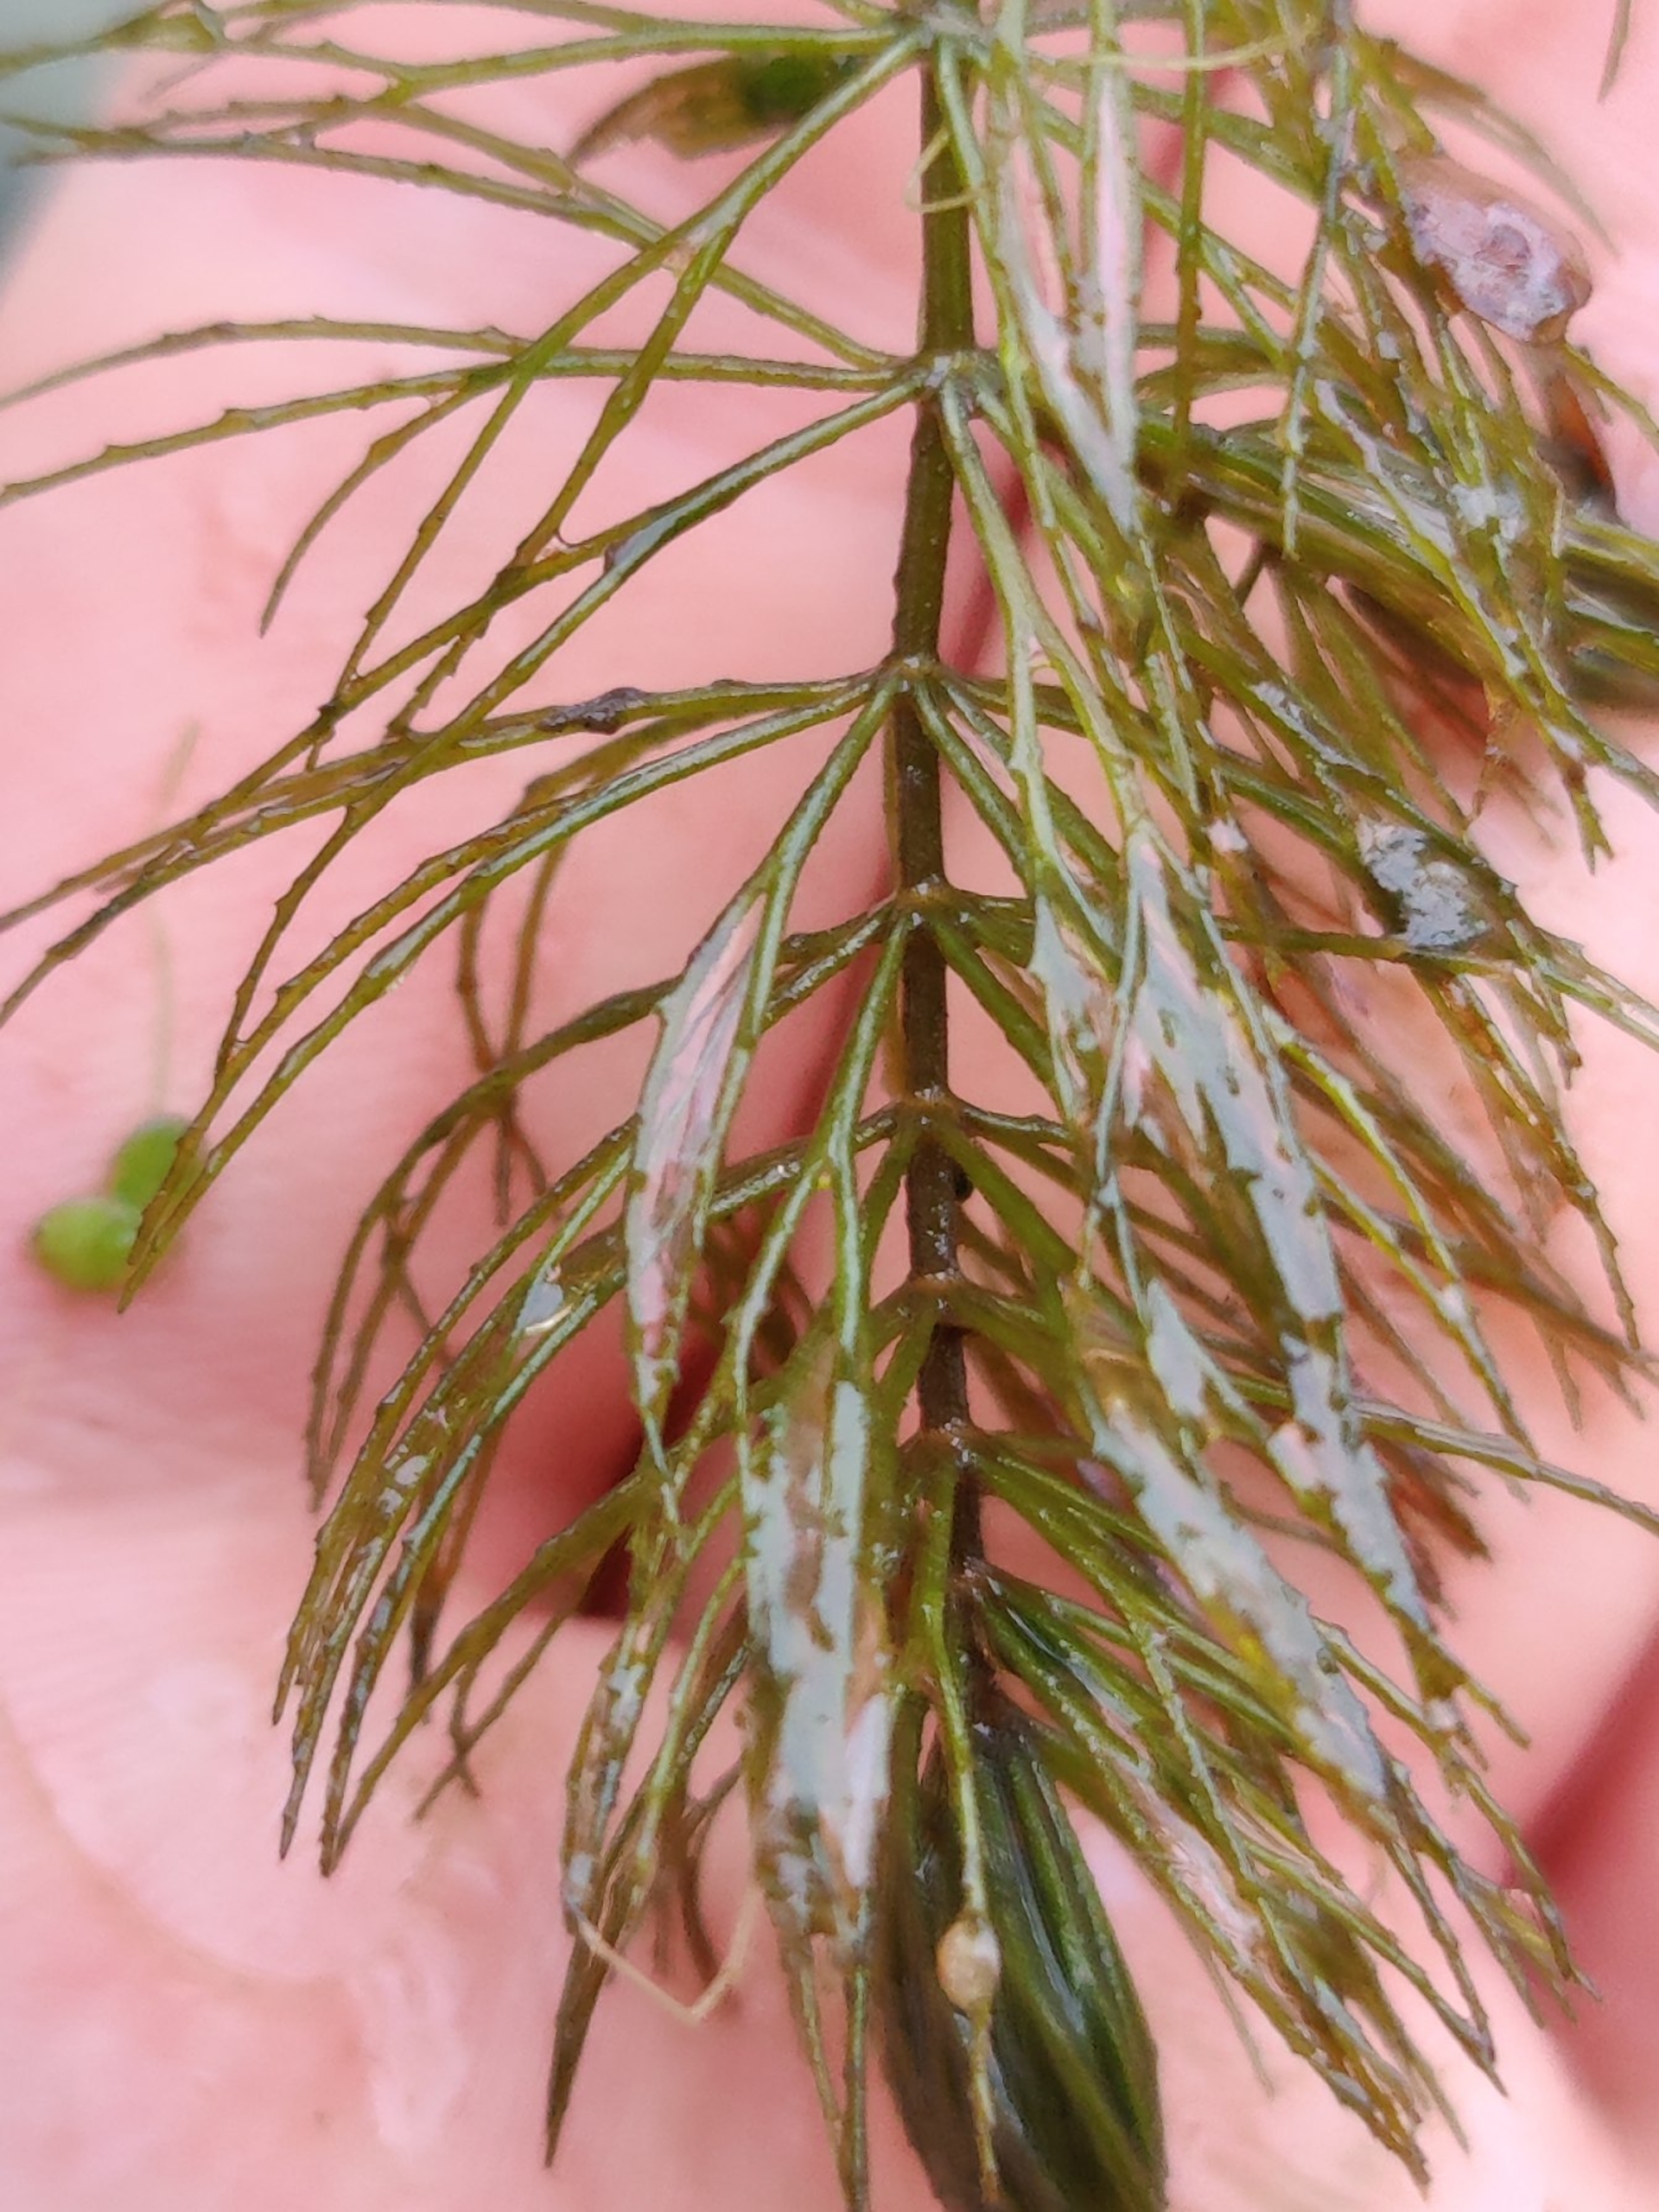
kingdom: Plantae
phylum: Tracheophyta
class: Magnoliopsida
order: Ceratophyllales
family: Ceratophyllaceae
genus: Ceratophyllum
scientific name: Ceratophyllum demersum
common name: Tornfrøet hornblad
